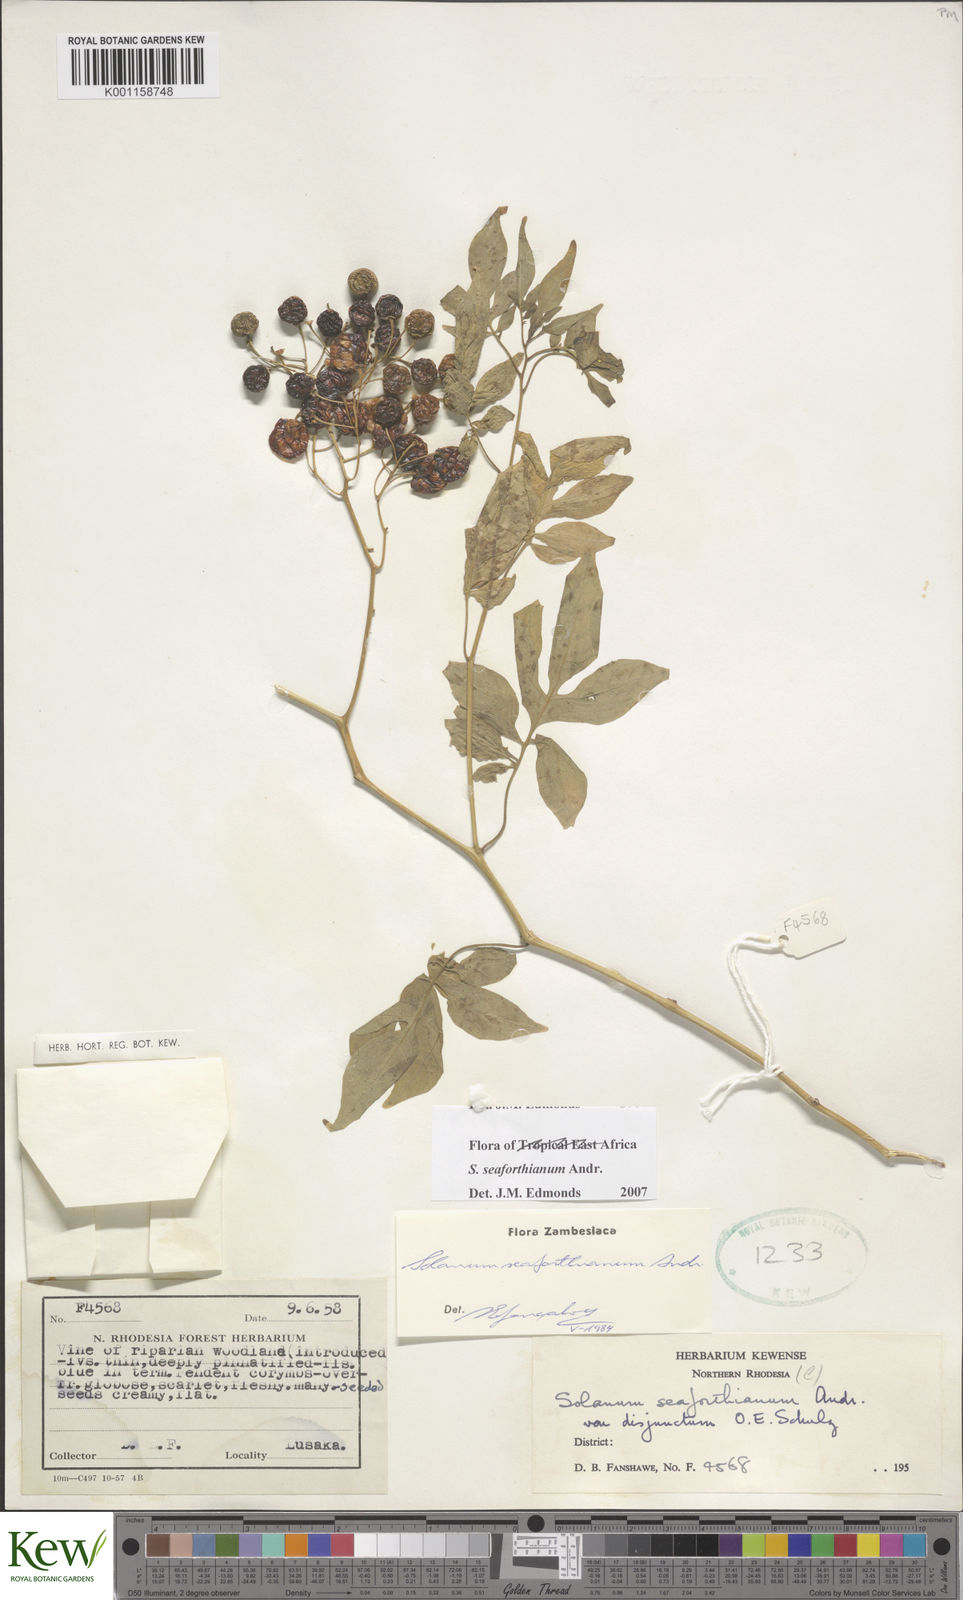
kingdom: Plantae
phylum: Tracheophyta
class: Magnoliopsida
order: Solanales
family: Solanaceae
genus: Solanum
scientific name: Solanum seaforthianum
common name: Brazilian nightshade
